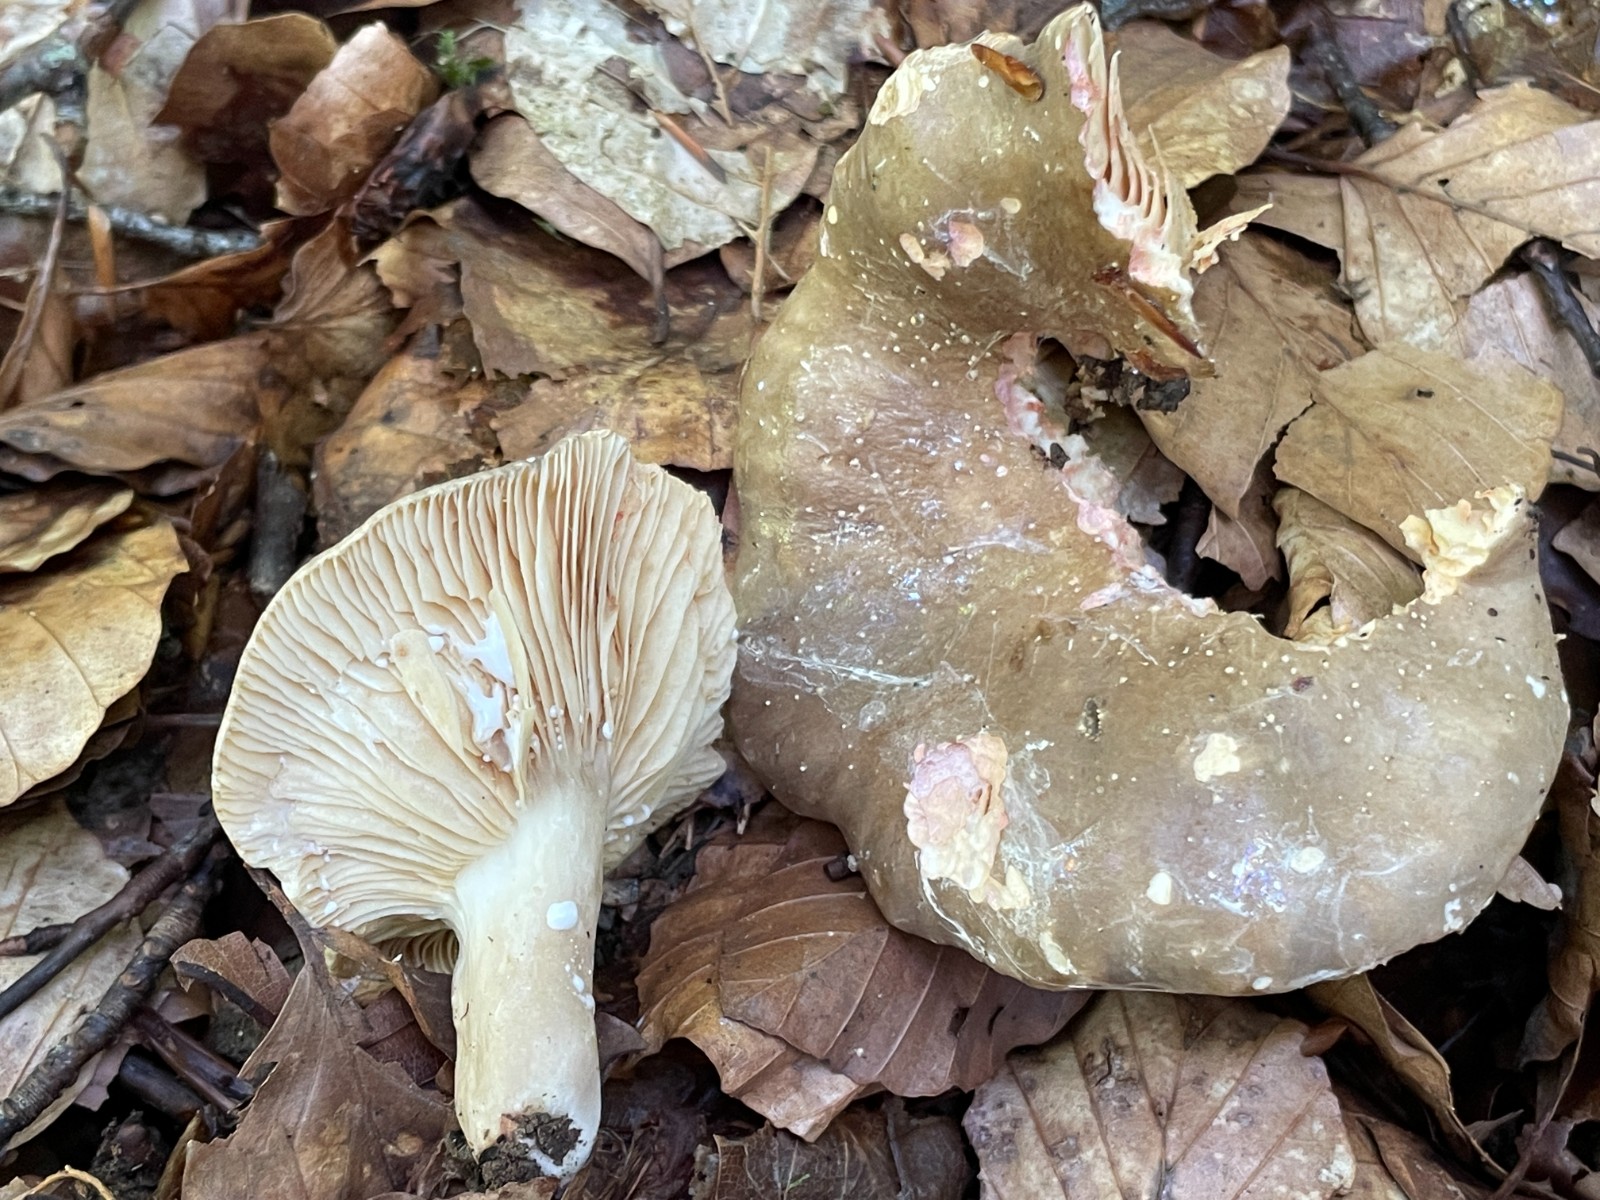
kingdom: Fungi
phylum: Basidiomycota
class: Agaricomycetes
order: Russulales
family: Russulaceae
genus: Lactarius
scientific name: Lactarius
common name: mælkehat
